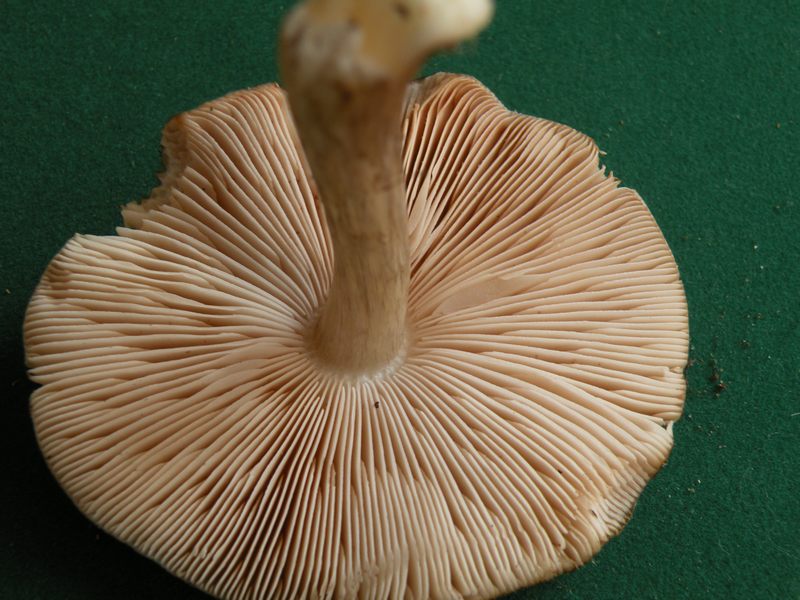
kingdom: Fungi
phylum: Basidiomycota
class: Agaricomycetes
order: Agaricales
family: Pluteaceae
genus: Pluteus
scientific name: Pluteus cervinus
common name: sodfarvet skærmhat
